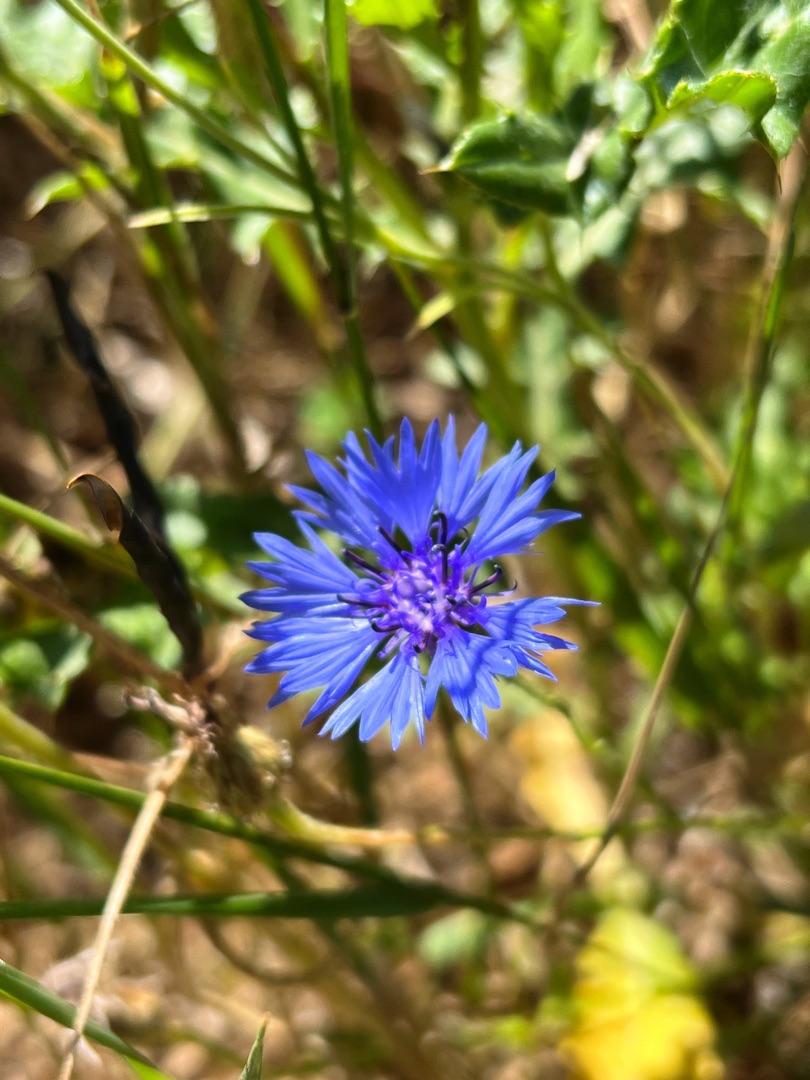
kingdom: Plantae
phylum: Tracheophyta
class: Magnoliopsida
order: Asterales
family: Asteraceae
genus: Centaurea
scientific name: Centaurea cyanus
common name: Kornblomst
